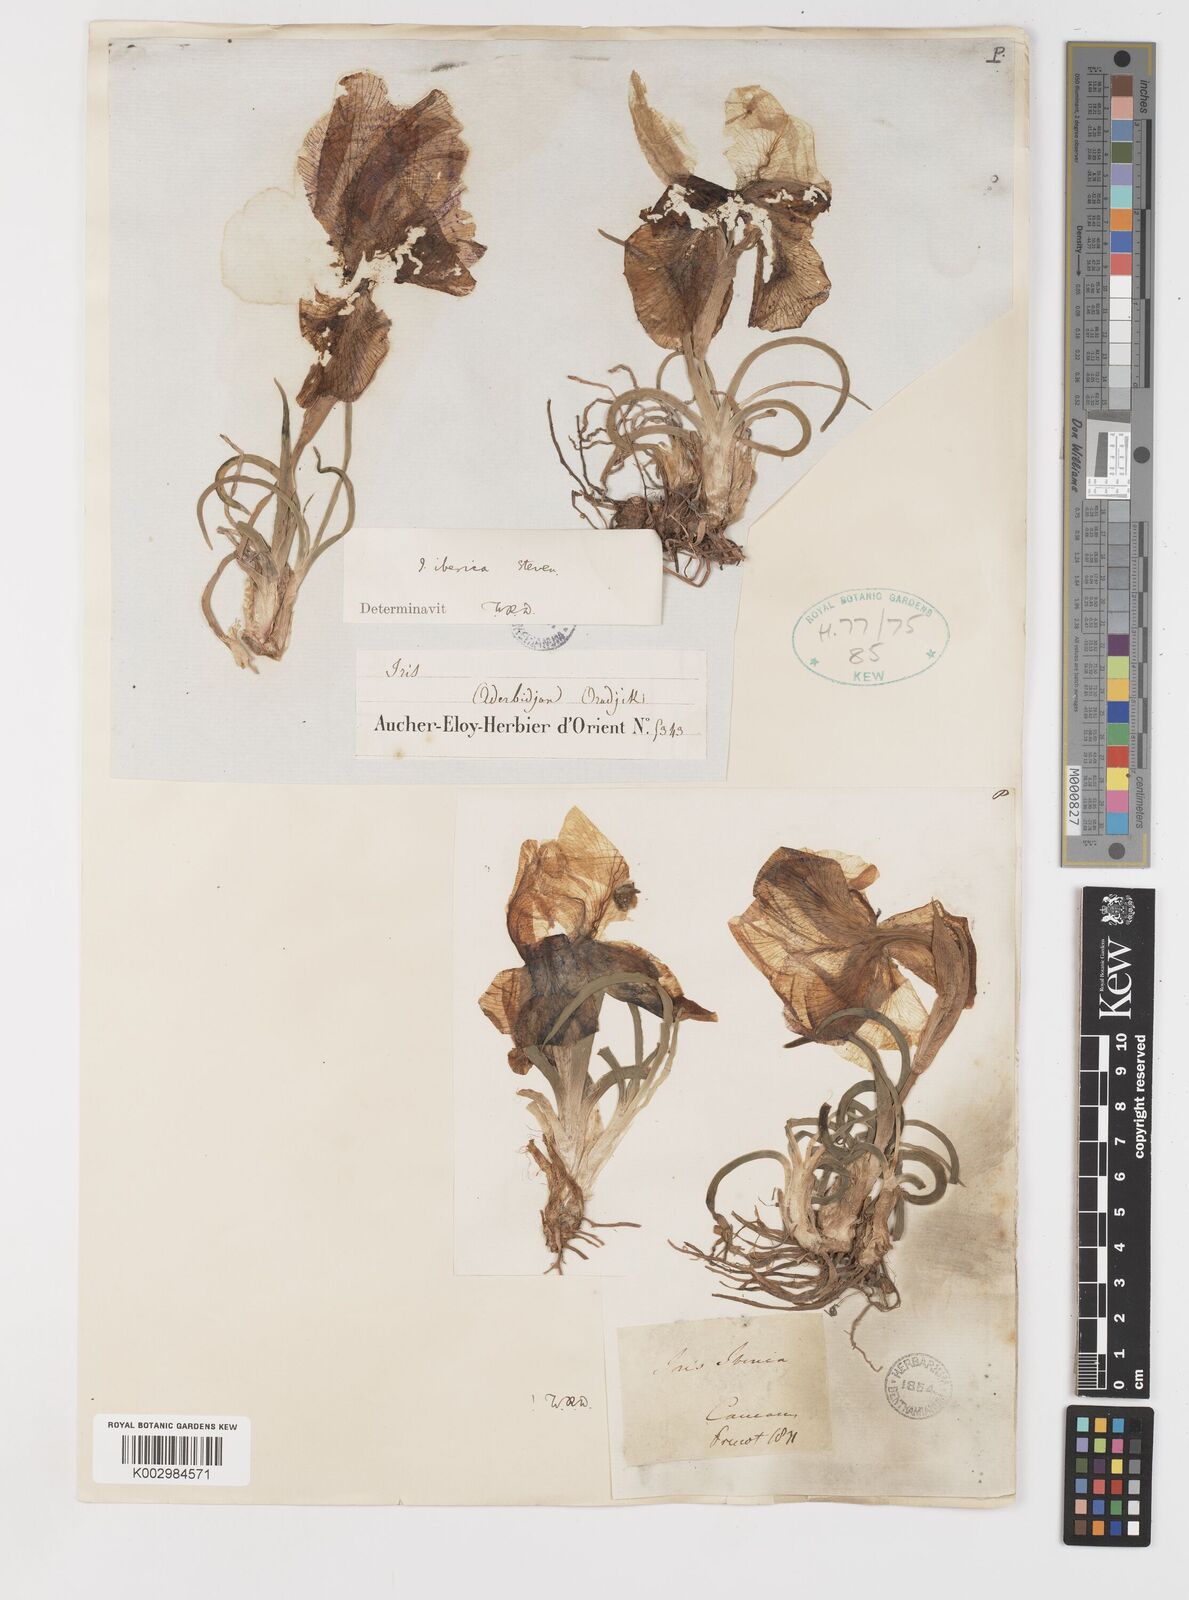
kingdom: Plantae
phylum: Tracheophyta
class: Liliopsida
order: Asparagales
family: Iridaceae
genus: Iris
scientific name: Iris iberica
